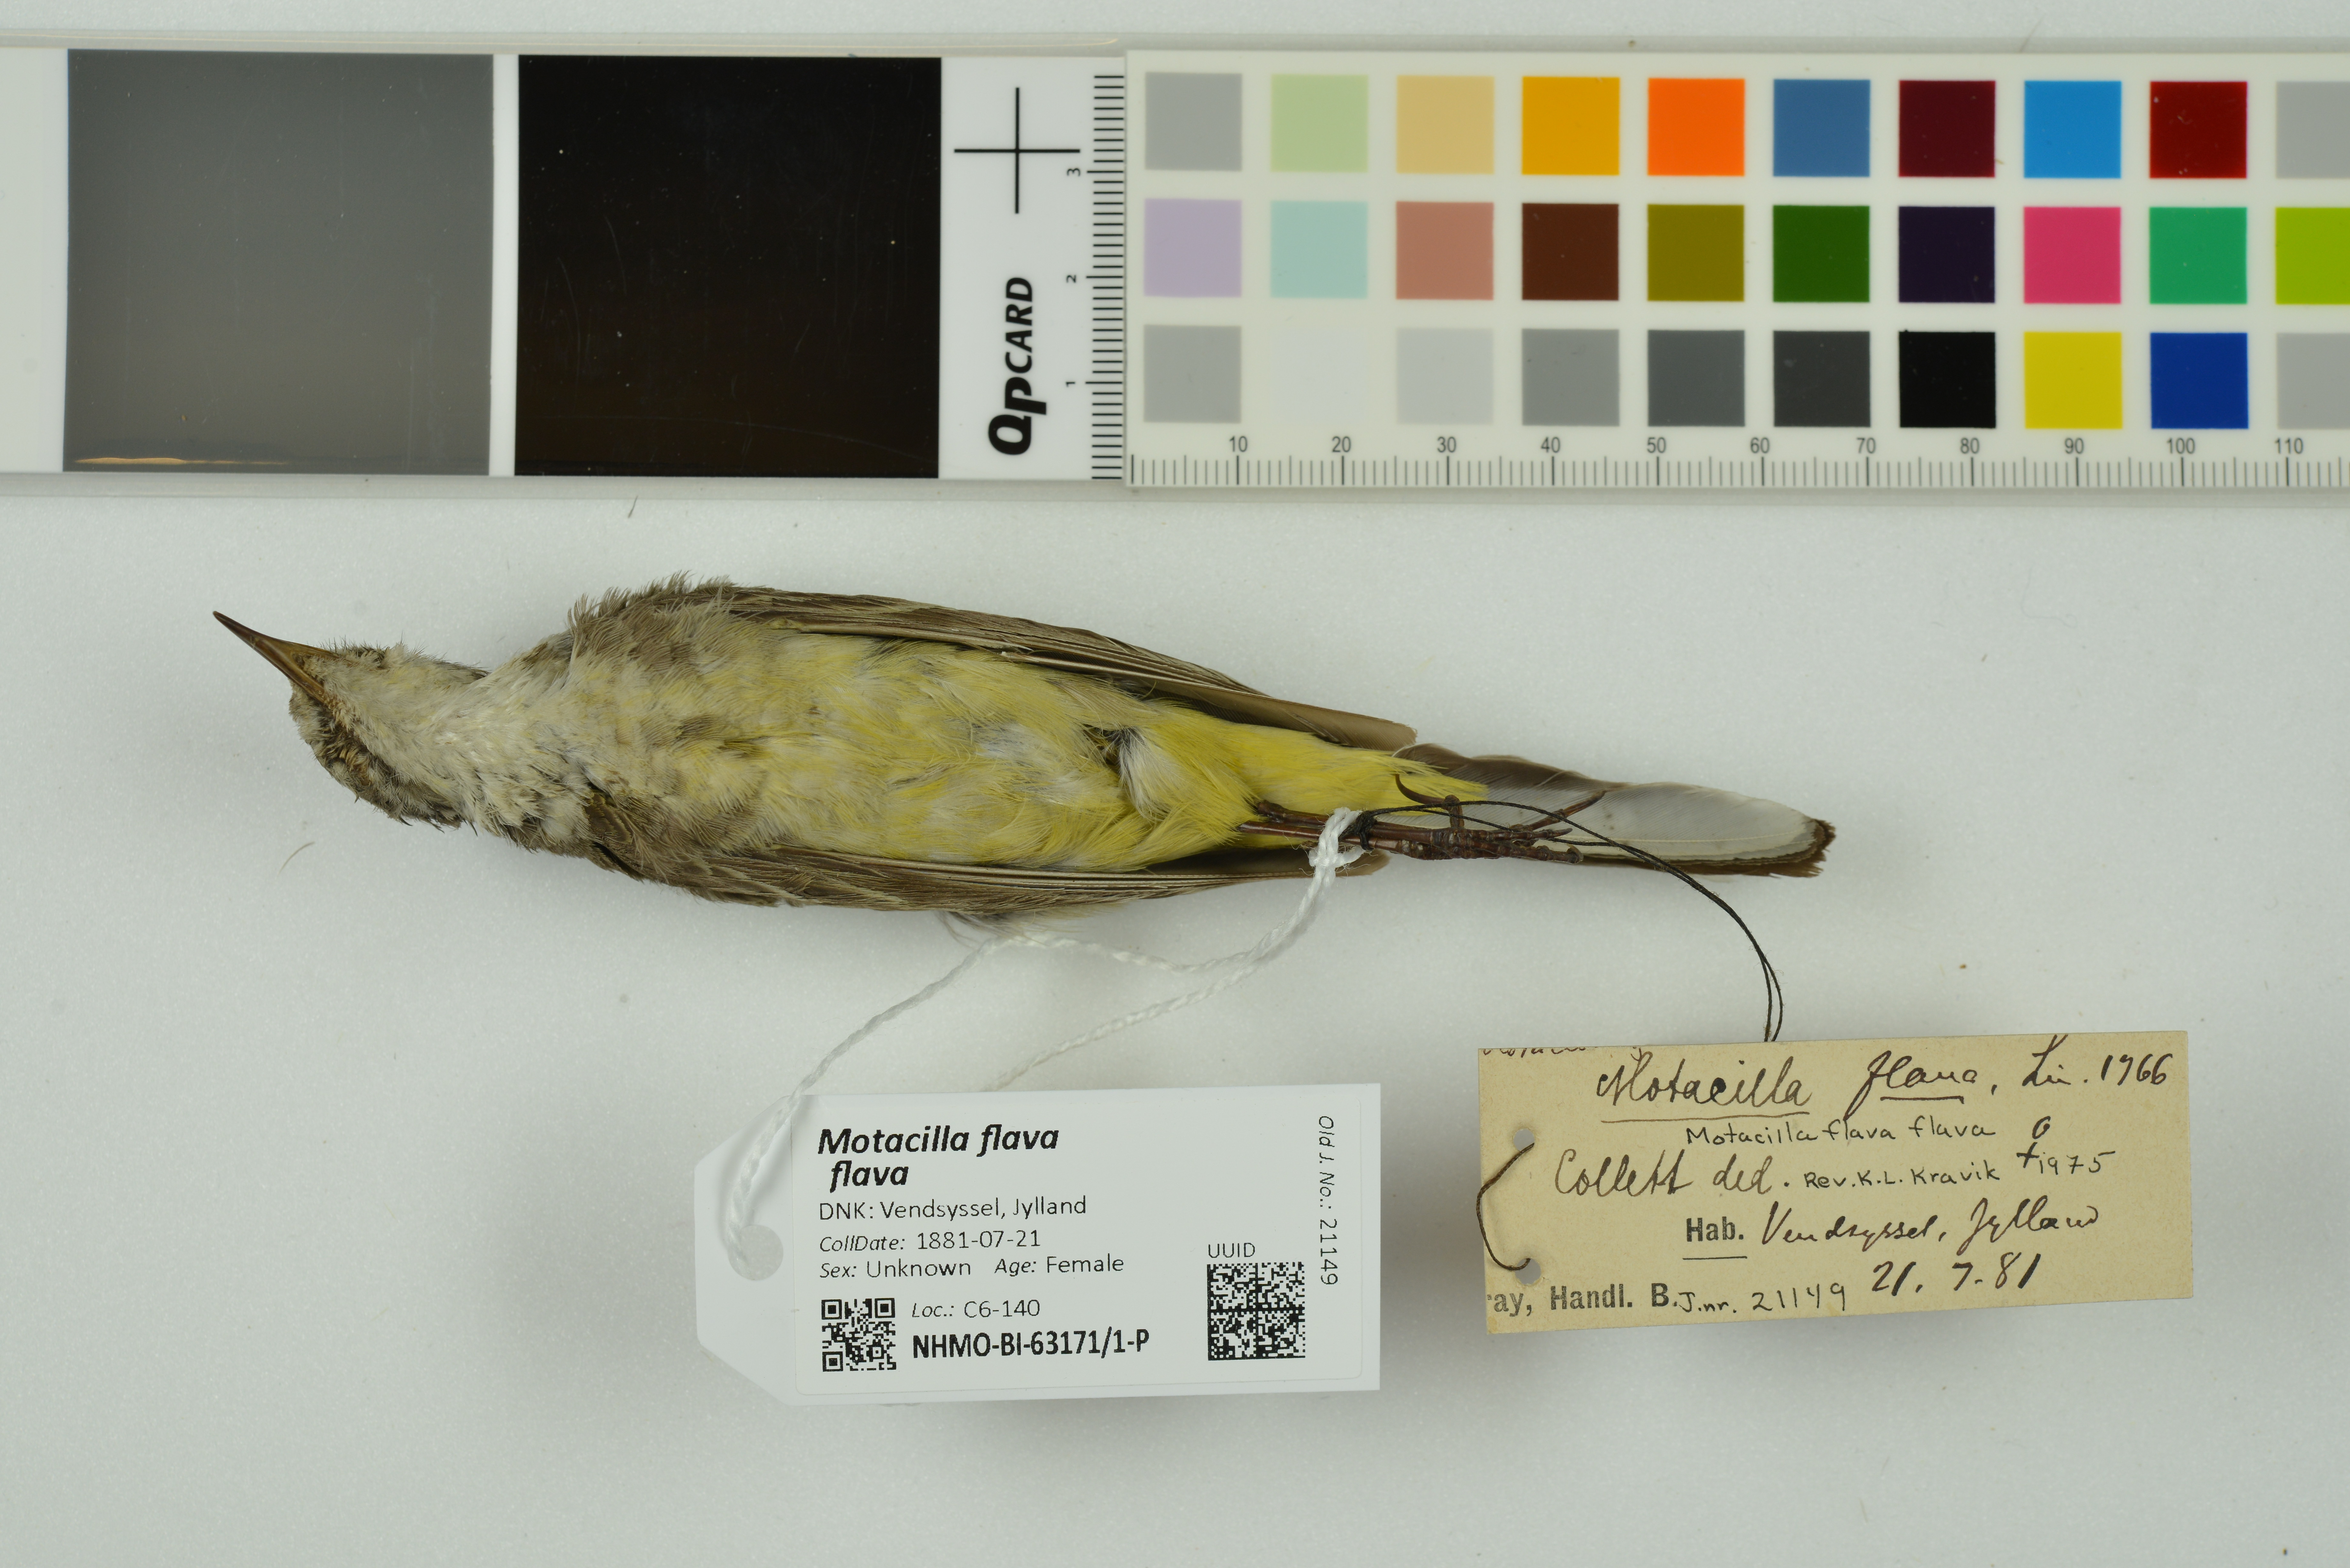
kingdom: Animalia
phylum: Chordata
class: Aves
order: Passeriformes
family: Motacillidae
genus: Motacilla
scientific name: Motacilla flava
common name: Western yellow wagtail
